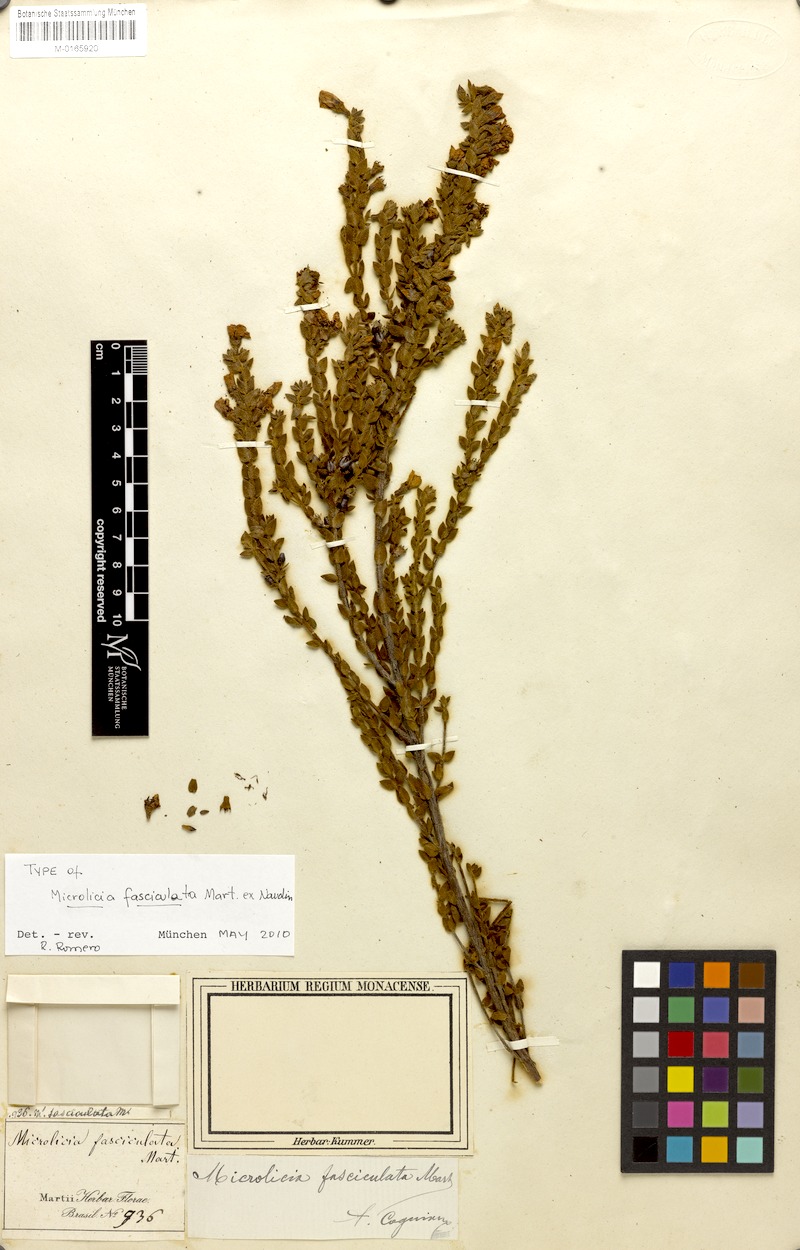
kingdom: Plantae
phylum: Tracheophyta
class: Magnoliopsida
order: Myrtales
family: Melastomataceae
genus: Microlicia
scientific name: Microlicia fasciculata
